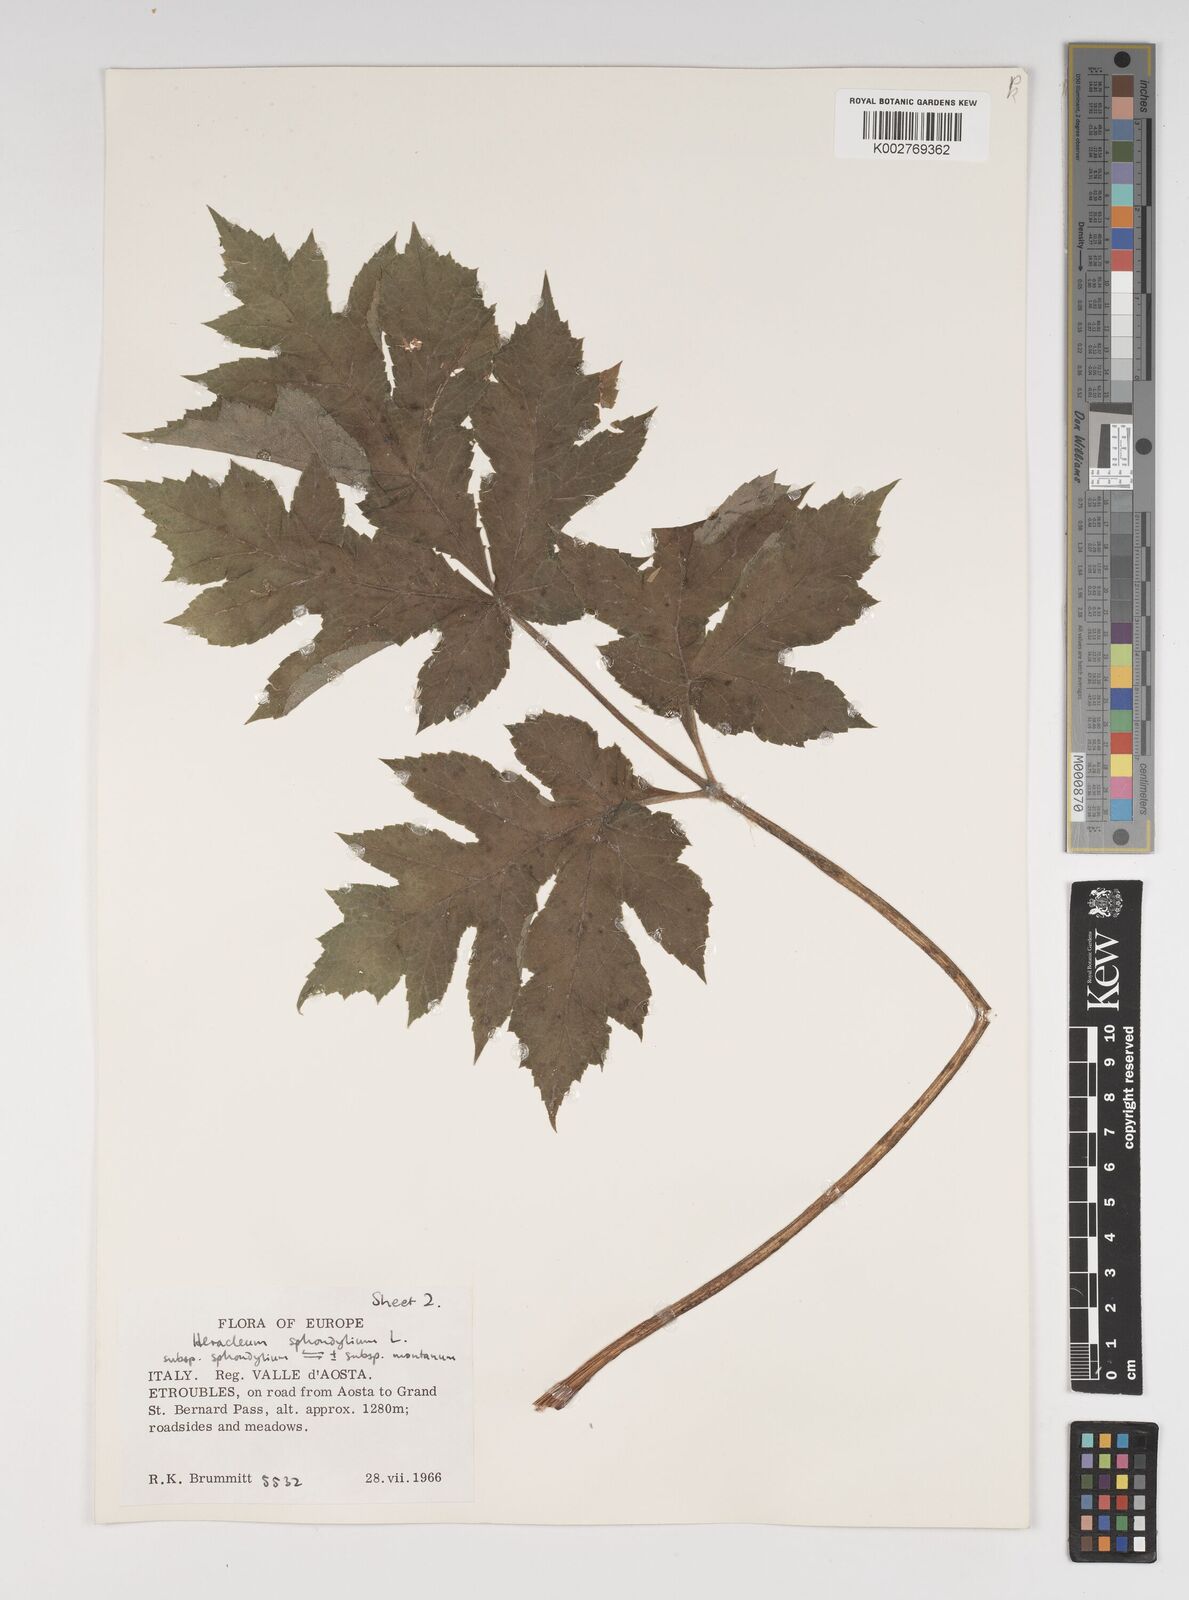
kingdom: Plantae
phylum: Tracheophyta
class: Magnoliopsida
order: Apiales
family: Apiaceae
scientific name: Apiaceae
